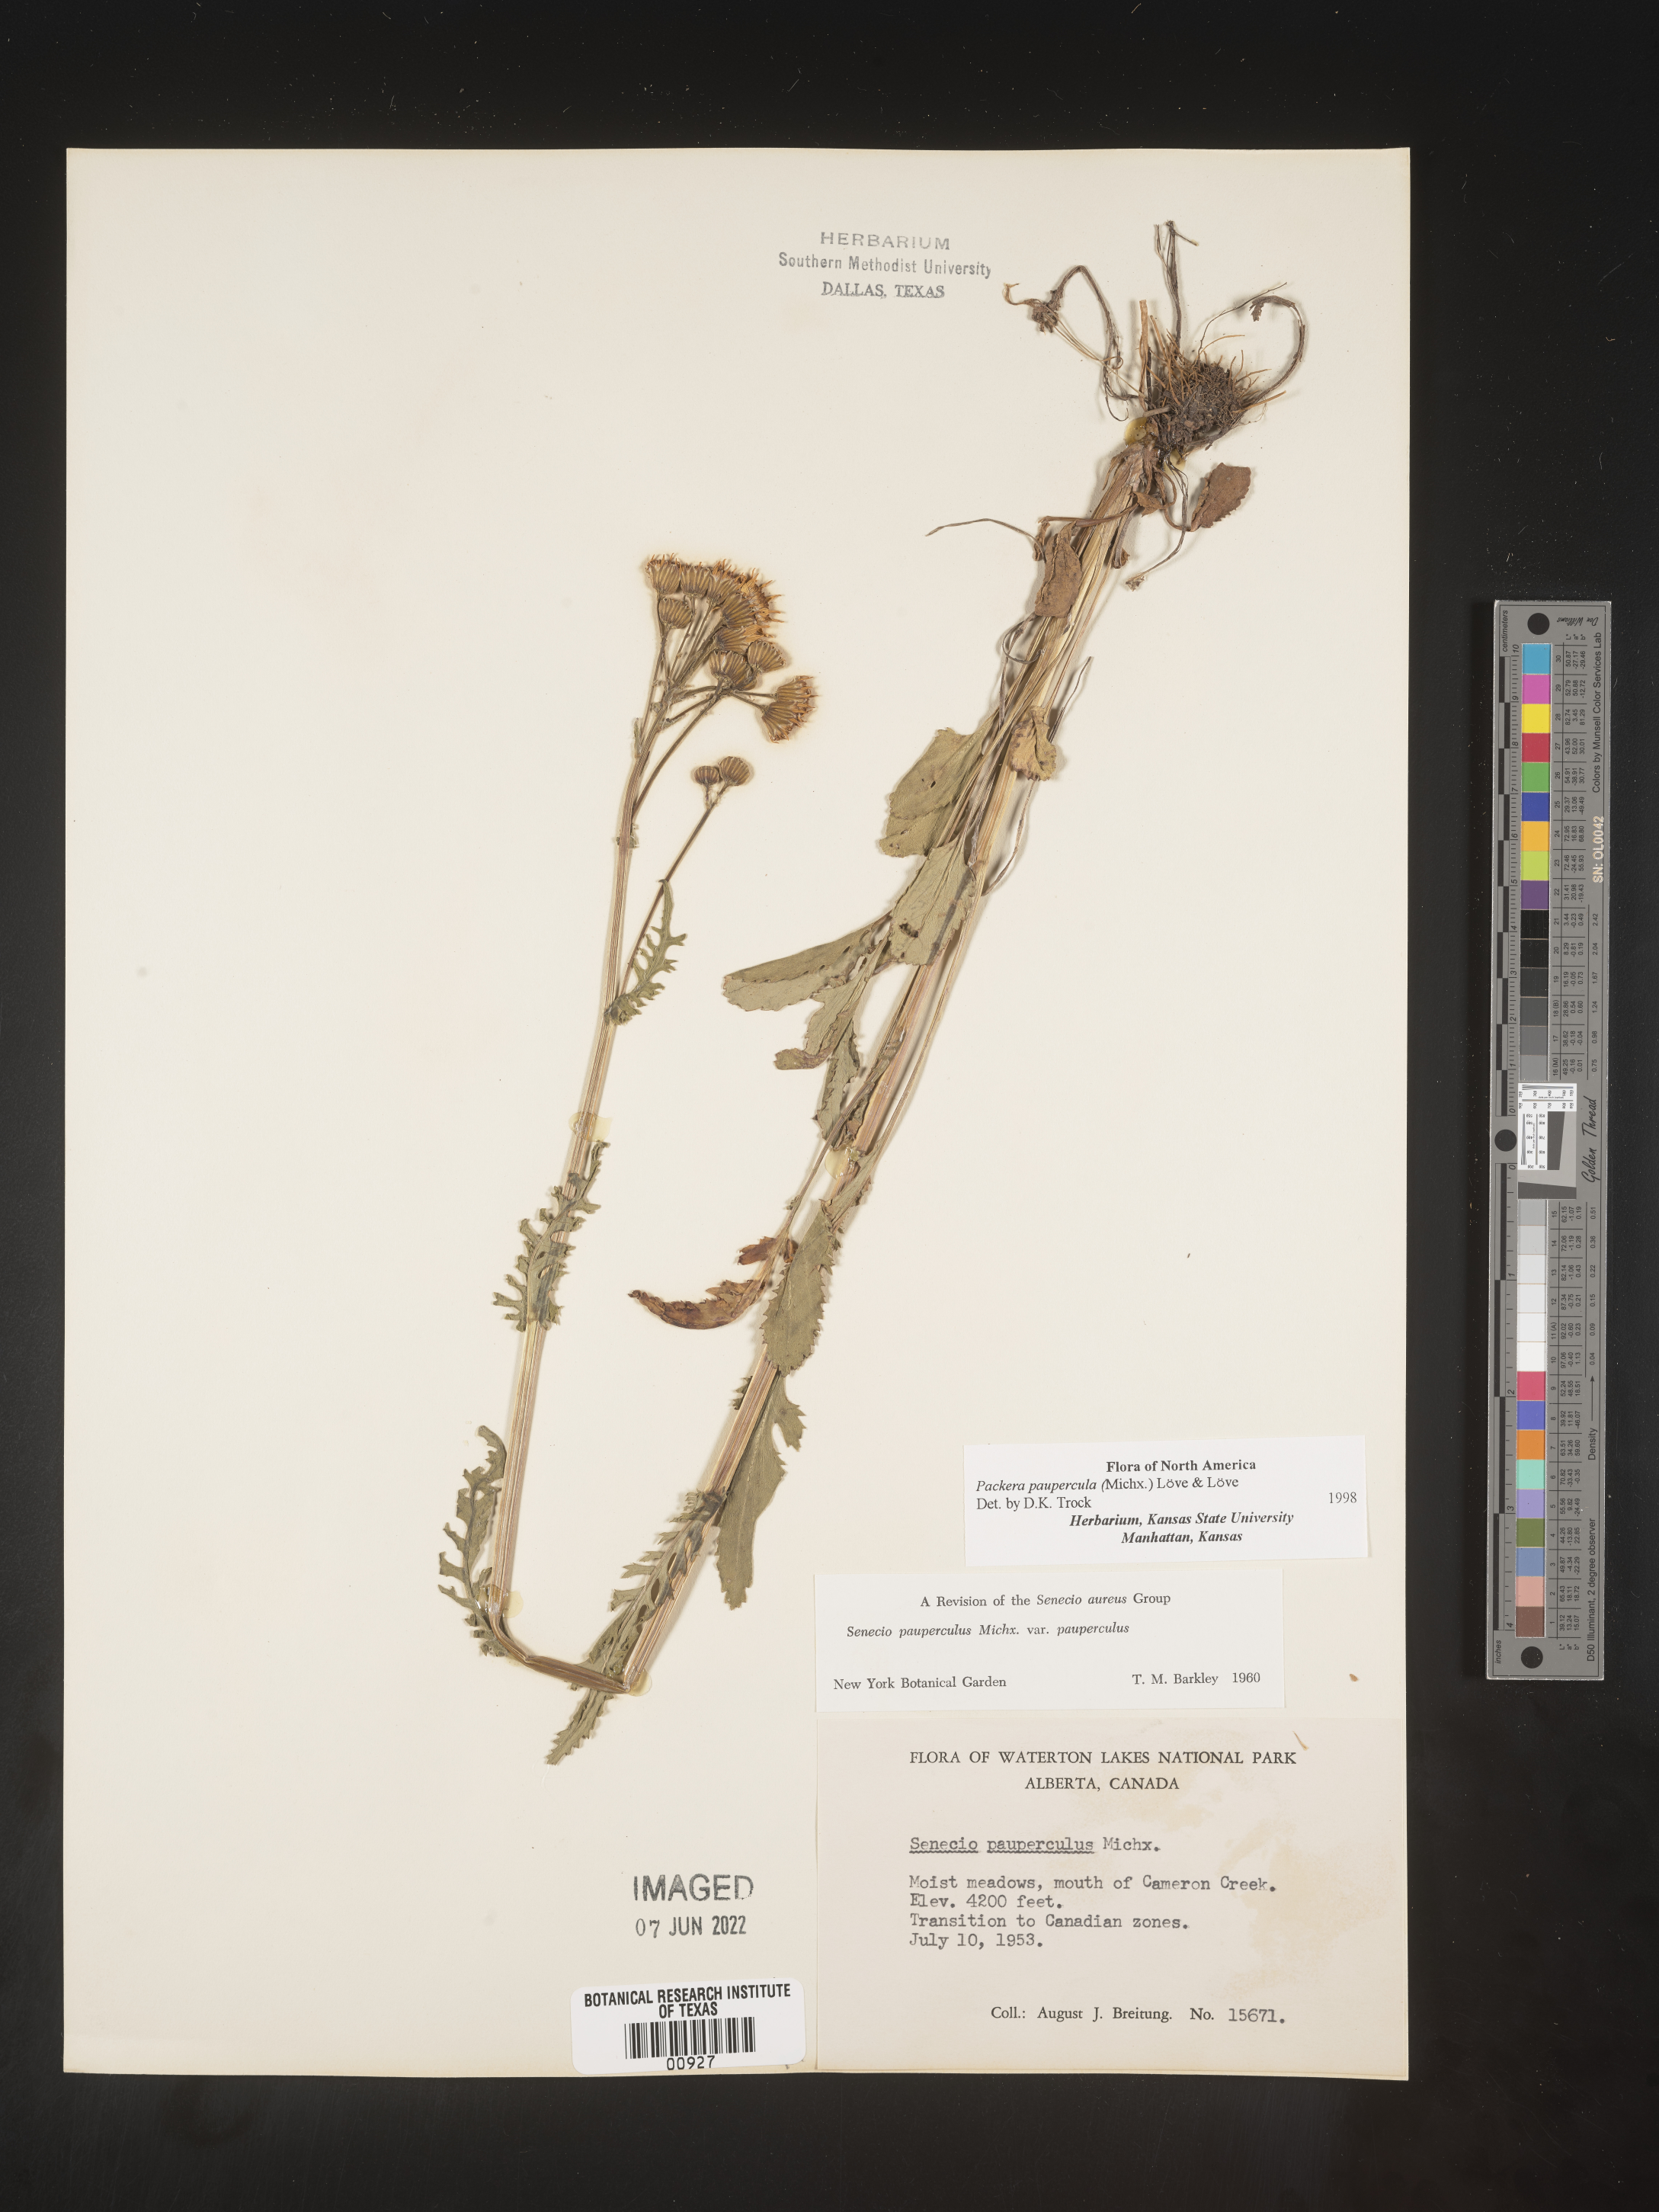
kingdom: Plantae
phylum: Tracheophyta
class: Magnoliopsida
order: Asterales
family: Asteraceae
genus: Packera
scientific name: Packera paupercula
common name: Balsam groundsel
